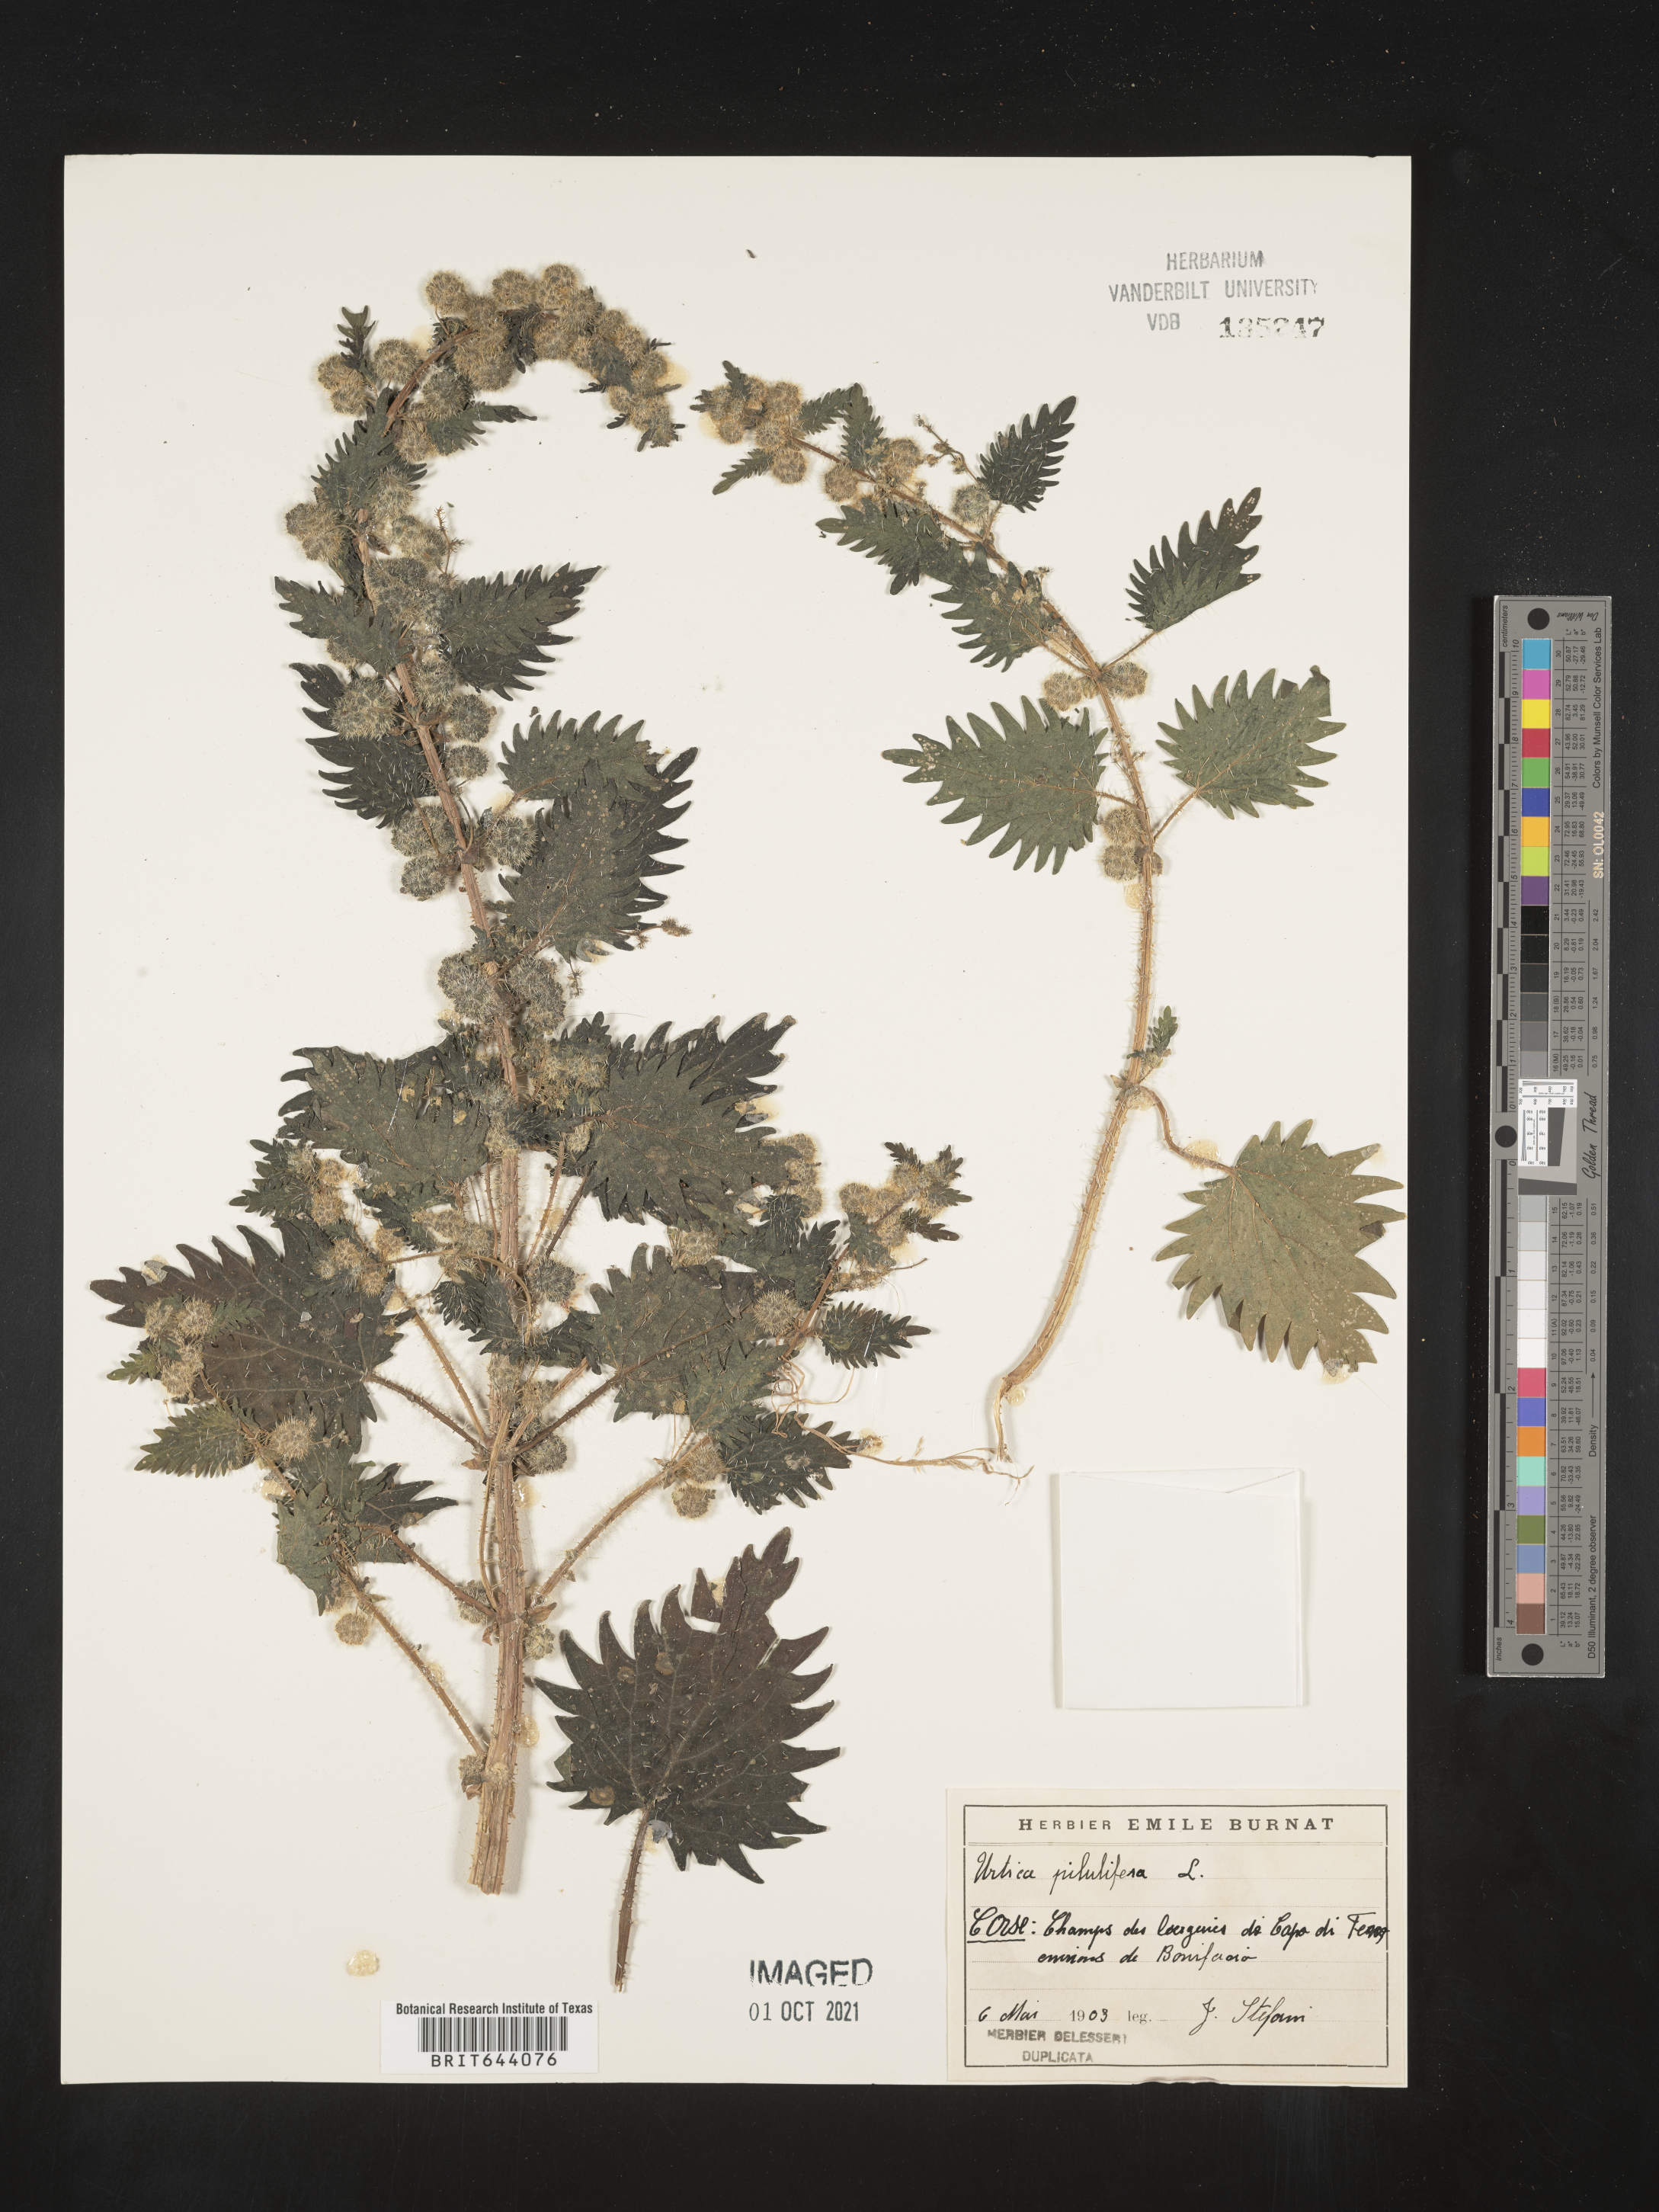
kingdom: Plantae
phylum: Tracheophyta
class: Magnoliopsida
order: Rosales
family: Urticaceae
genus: Urtica
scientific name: Urtica
